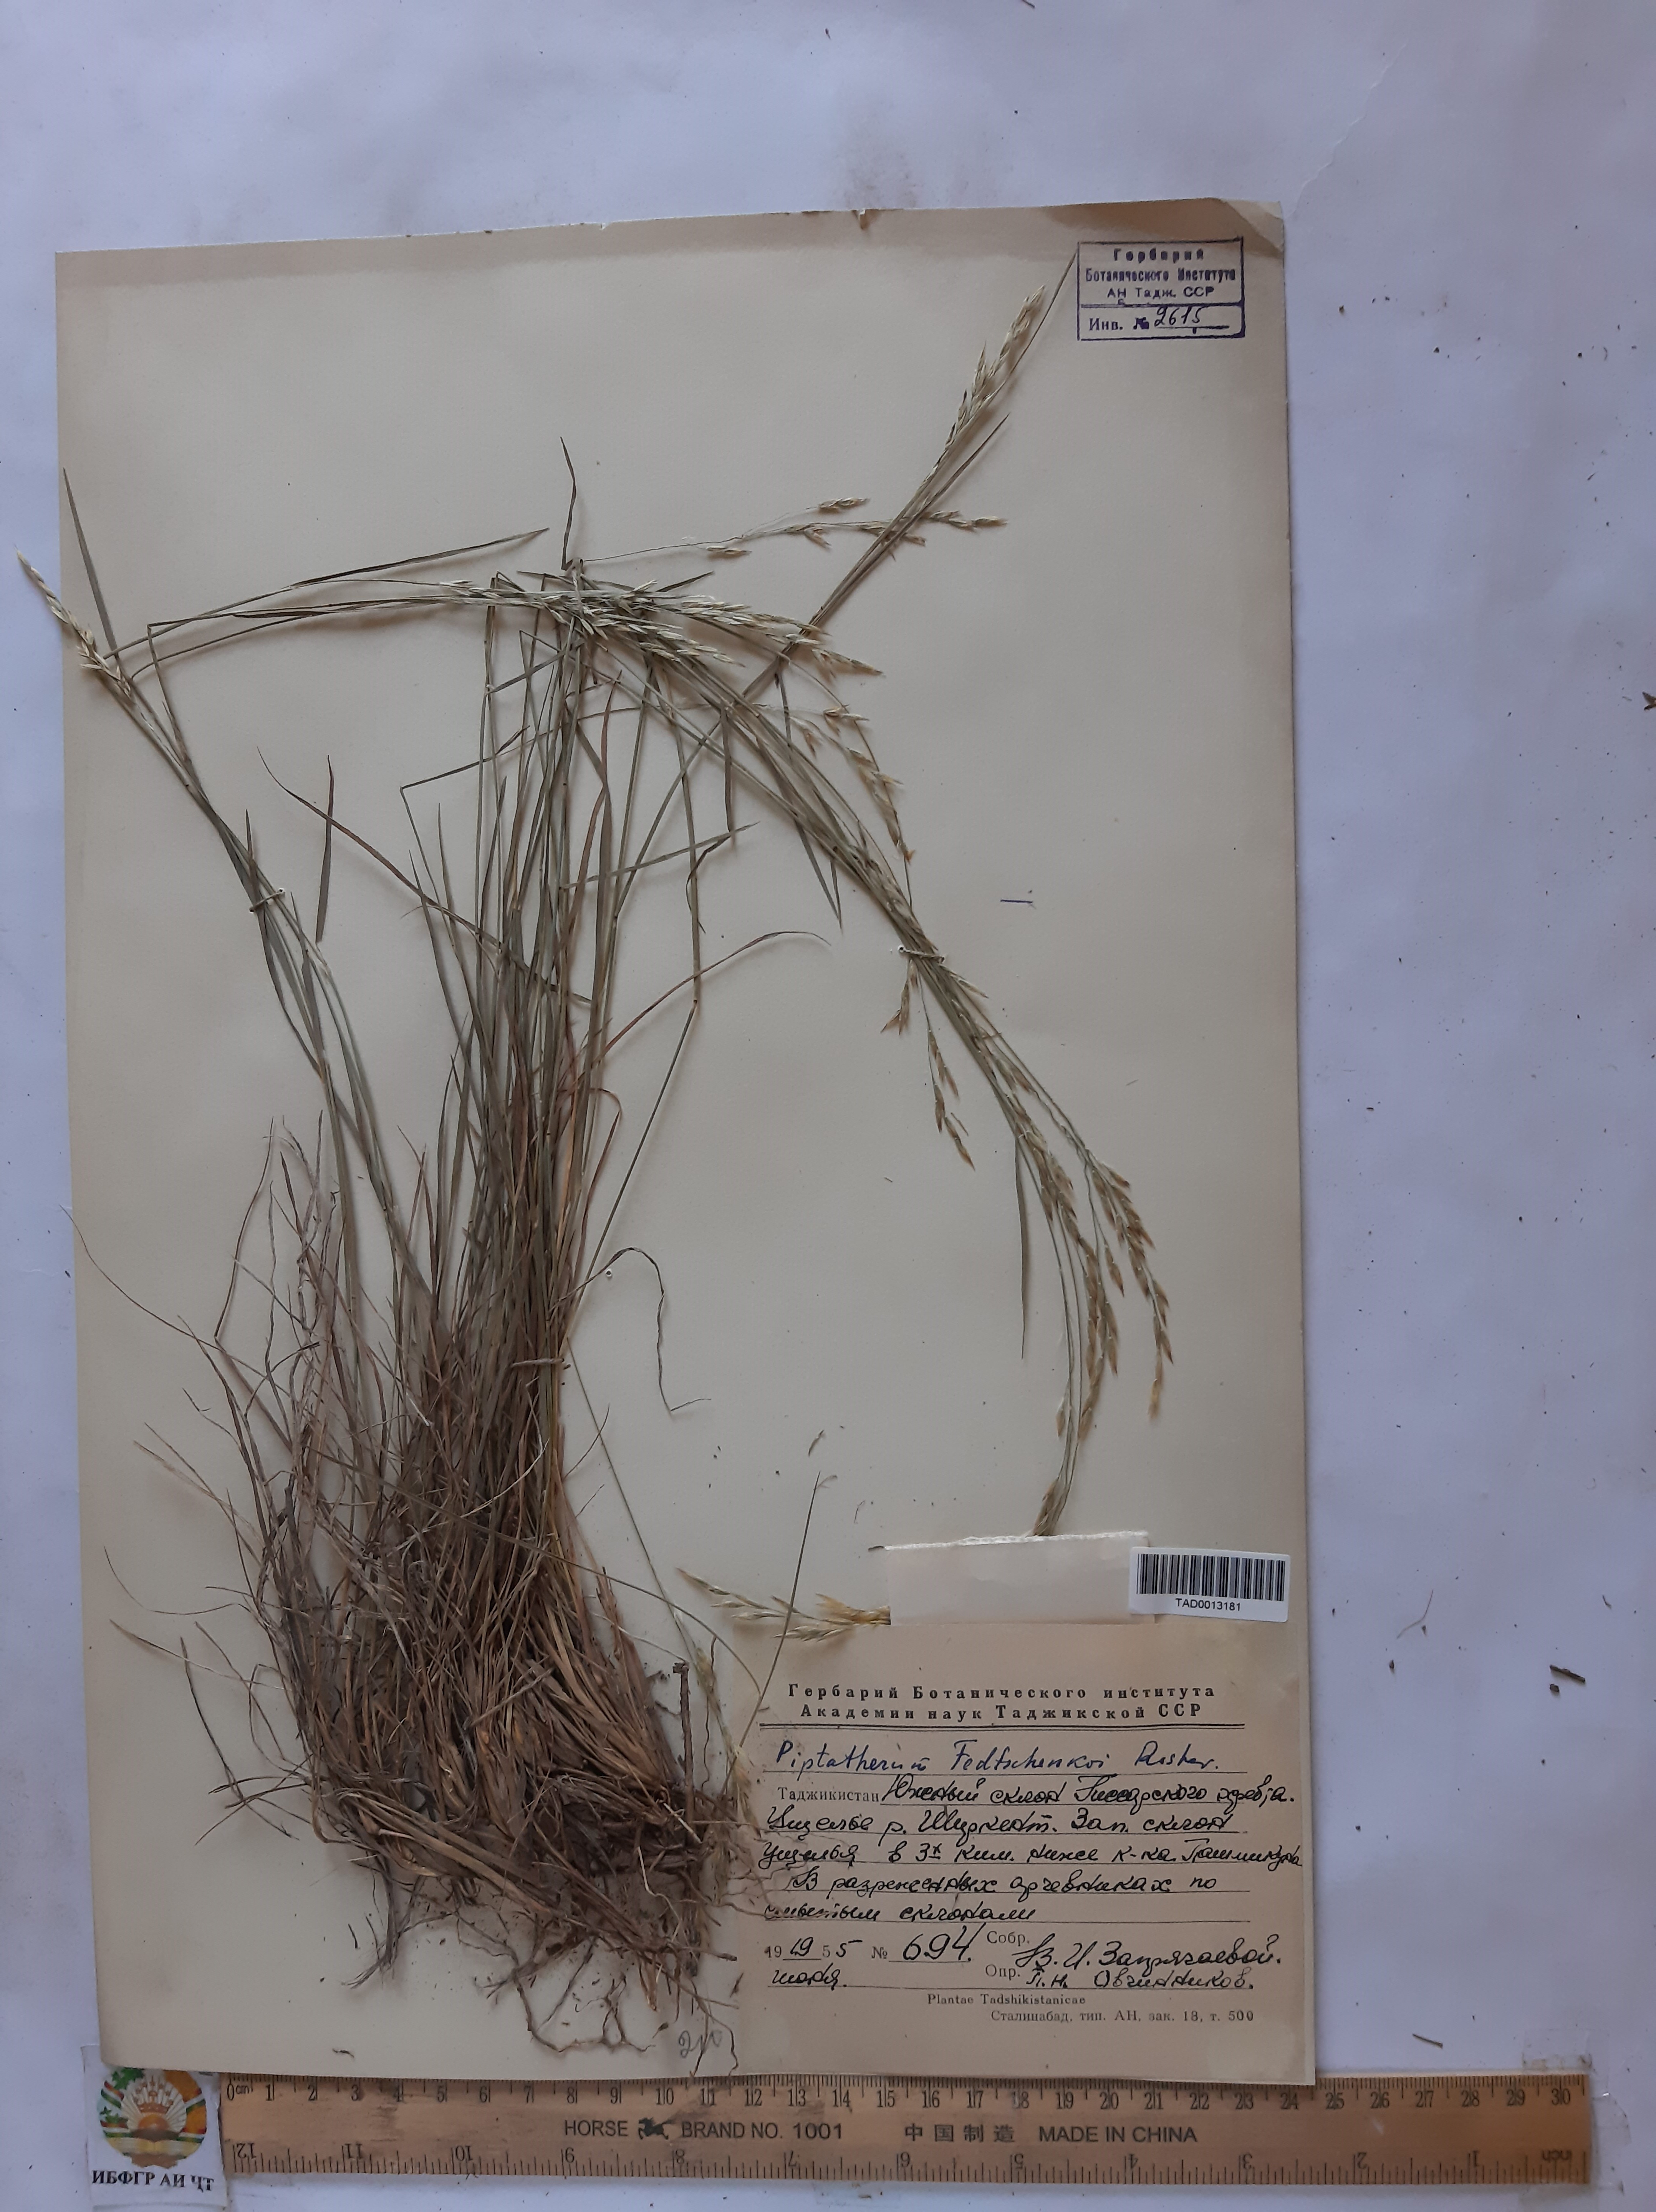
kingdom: Plantae
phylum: Tracheophyta
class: Liliopsida
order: Poales
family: Poaceae
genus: Piptatherum
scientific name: Piptatherum sogdianum
